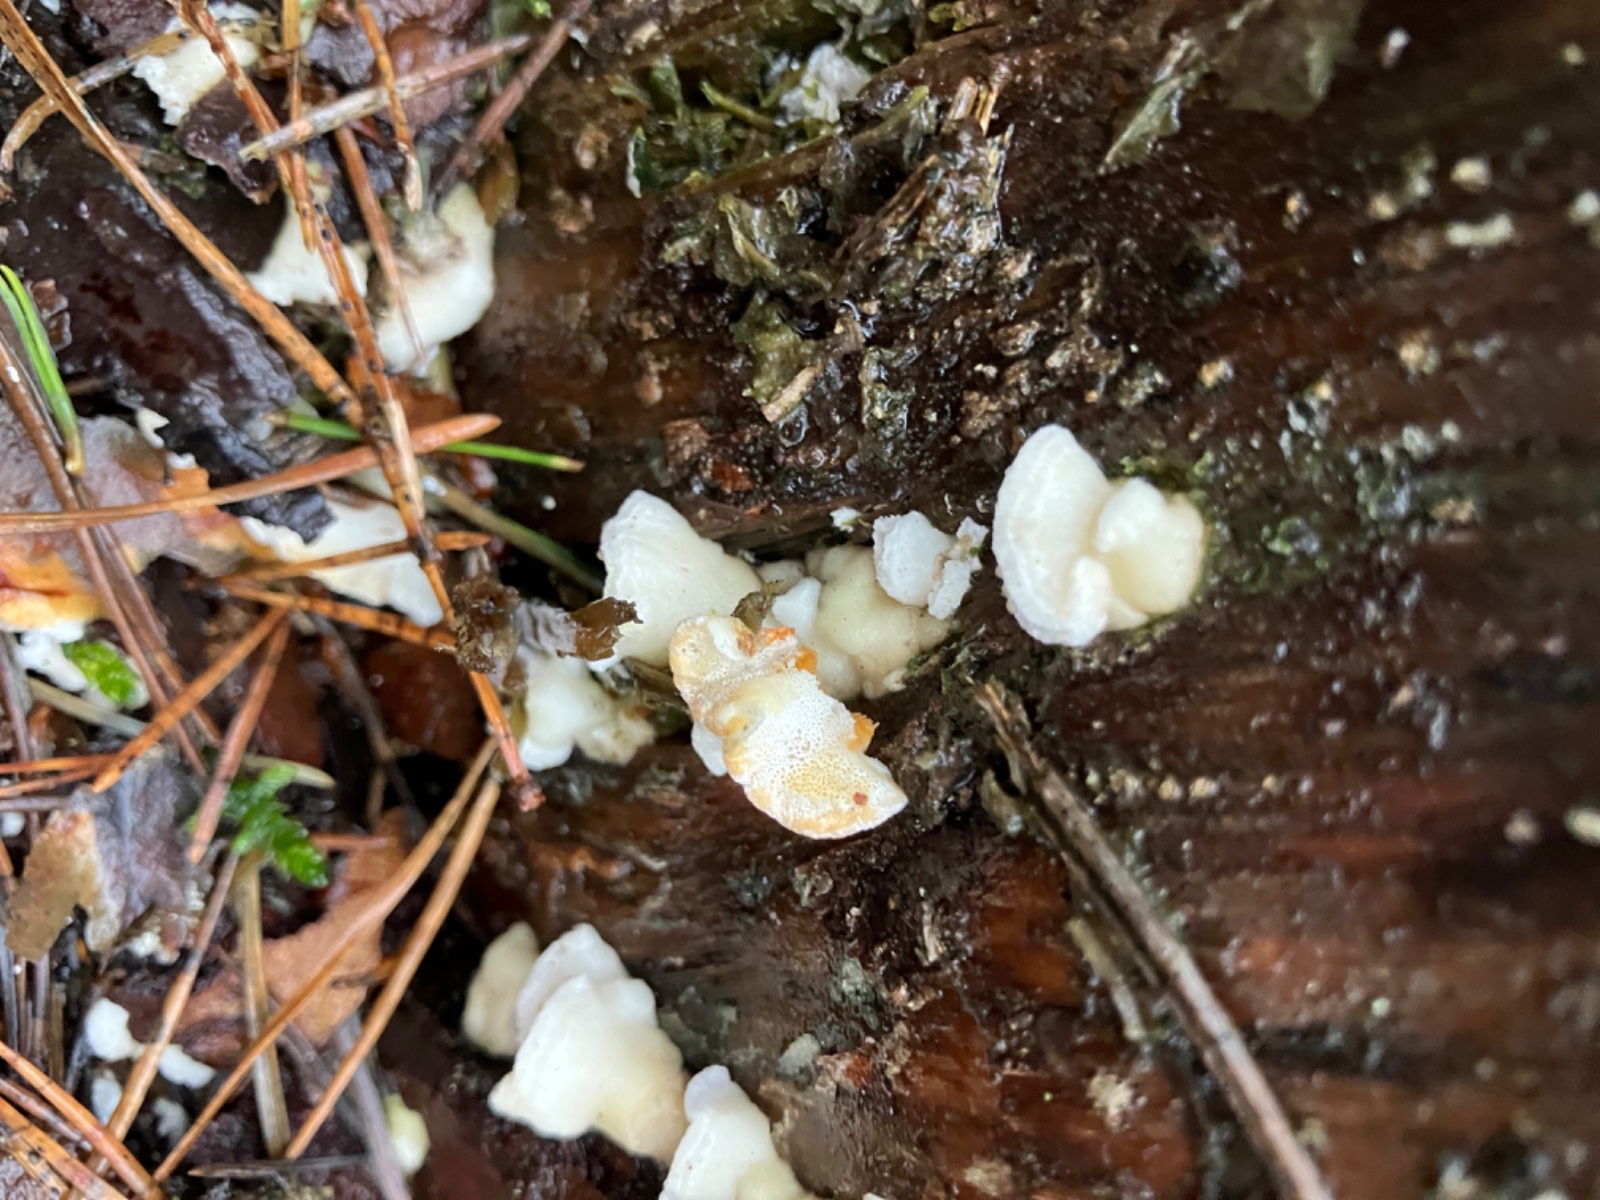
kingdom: Fungi
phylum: Basidiomycota
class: Agaricomycetes
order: Polyporales
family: Incrustoporiaceae
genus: Skeletocutis
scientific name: Skeletocutis amorpha
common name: orange krystalporesvamp
